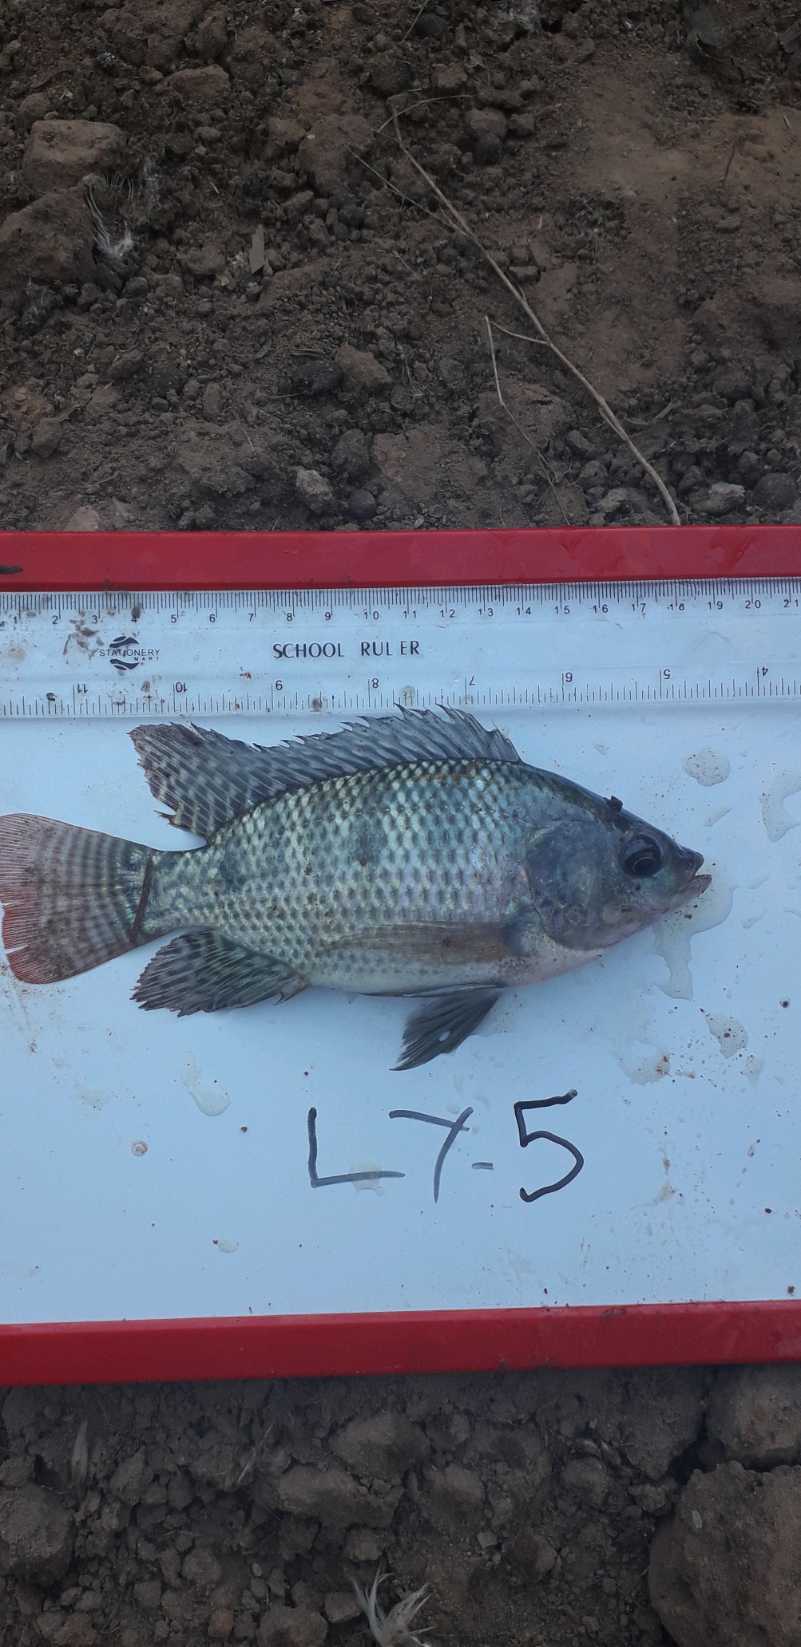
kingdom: Animalia
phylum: Chordata
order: Perciformes
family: Cichlidae
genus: Oreochromis
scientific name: Oreochromis niloticus
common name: Nile tilapia
